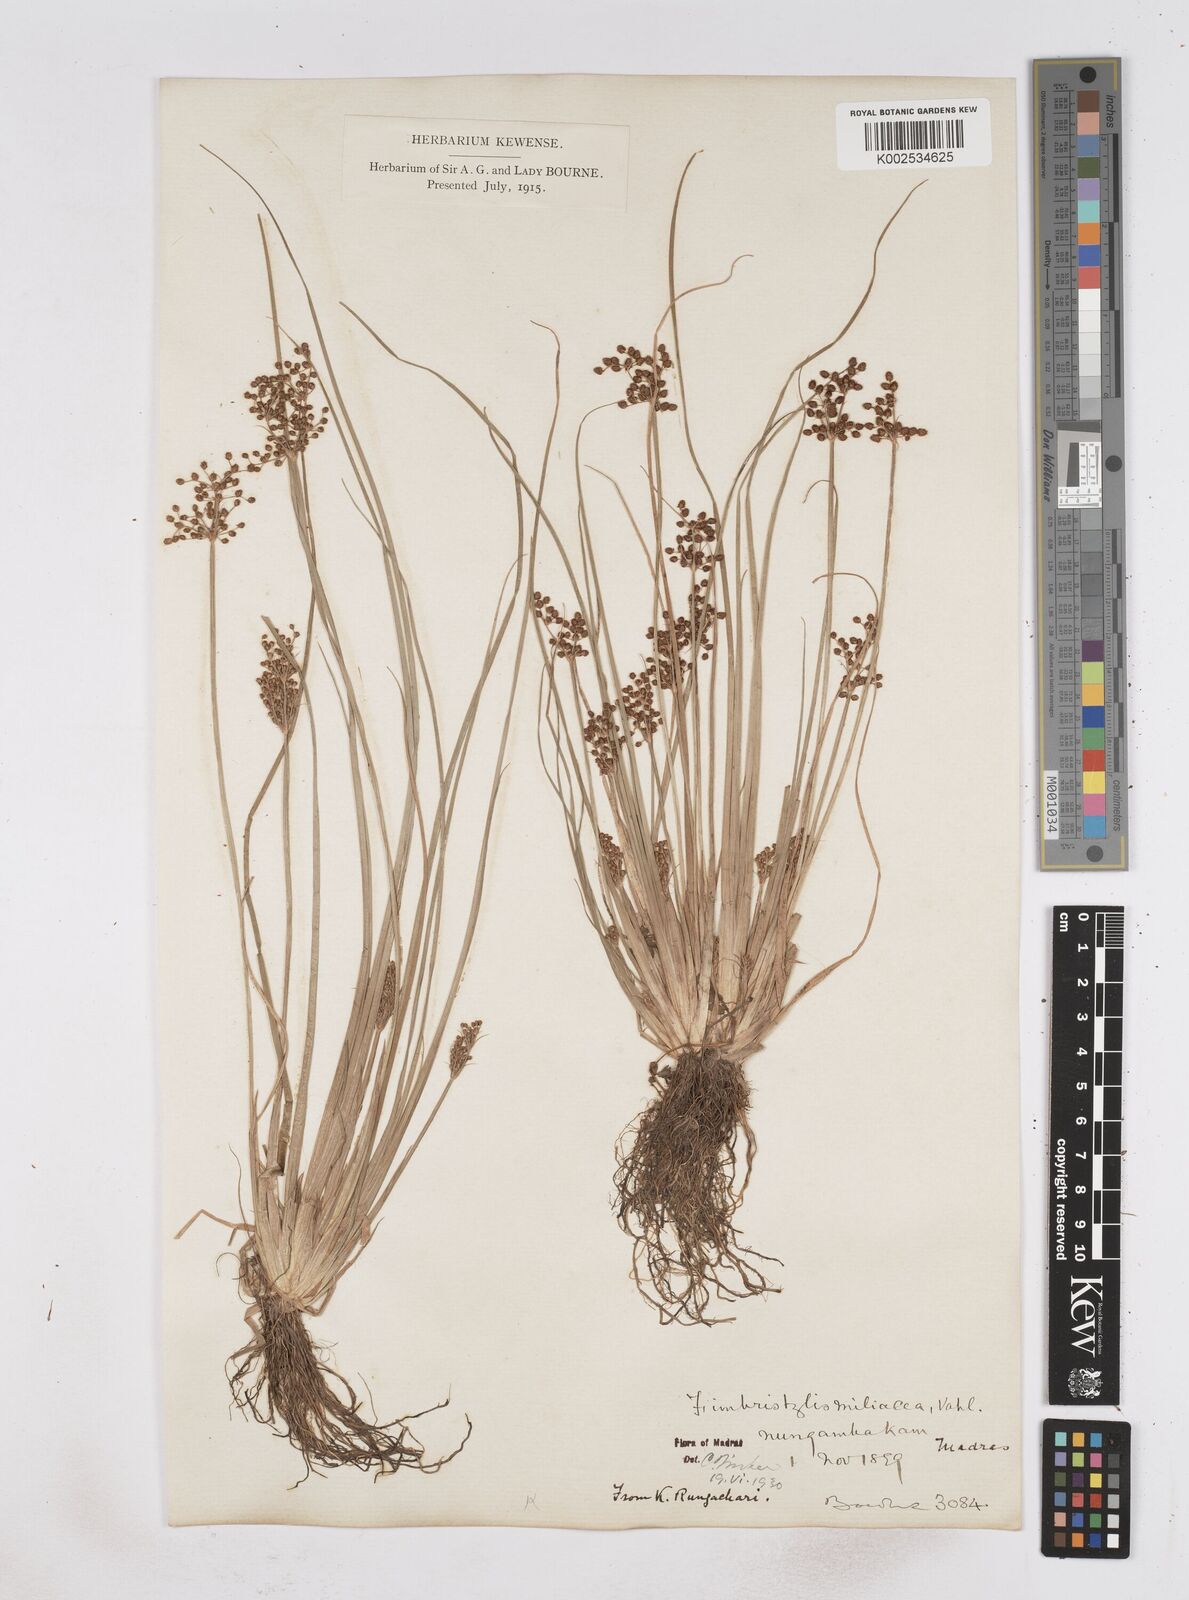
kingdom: Plantae
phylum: Tracheophyta
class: Liliopsida
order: Poales
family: Cyperaceae
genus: Fimbristylis
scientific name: Fimbristylis littoralis
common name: Fimbry
